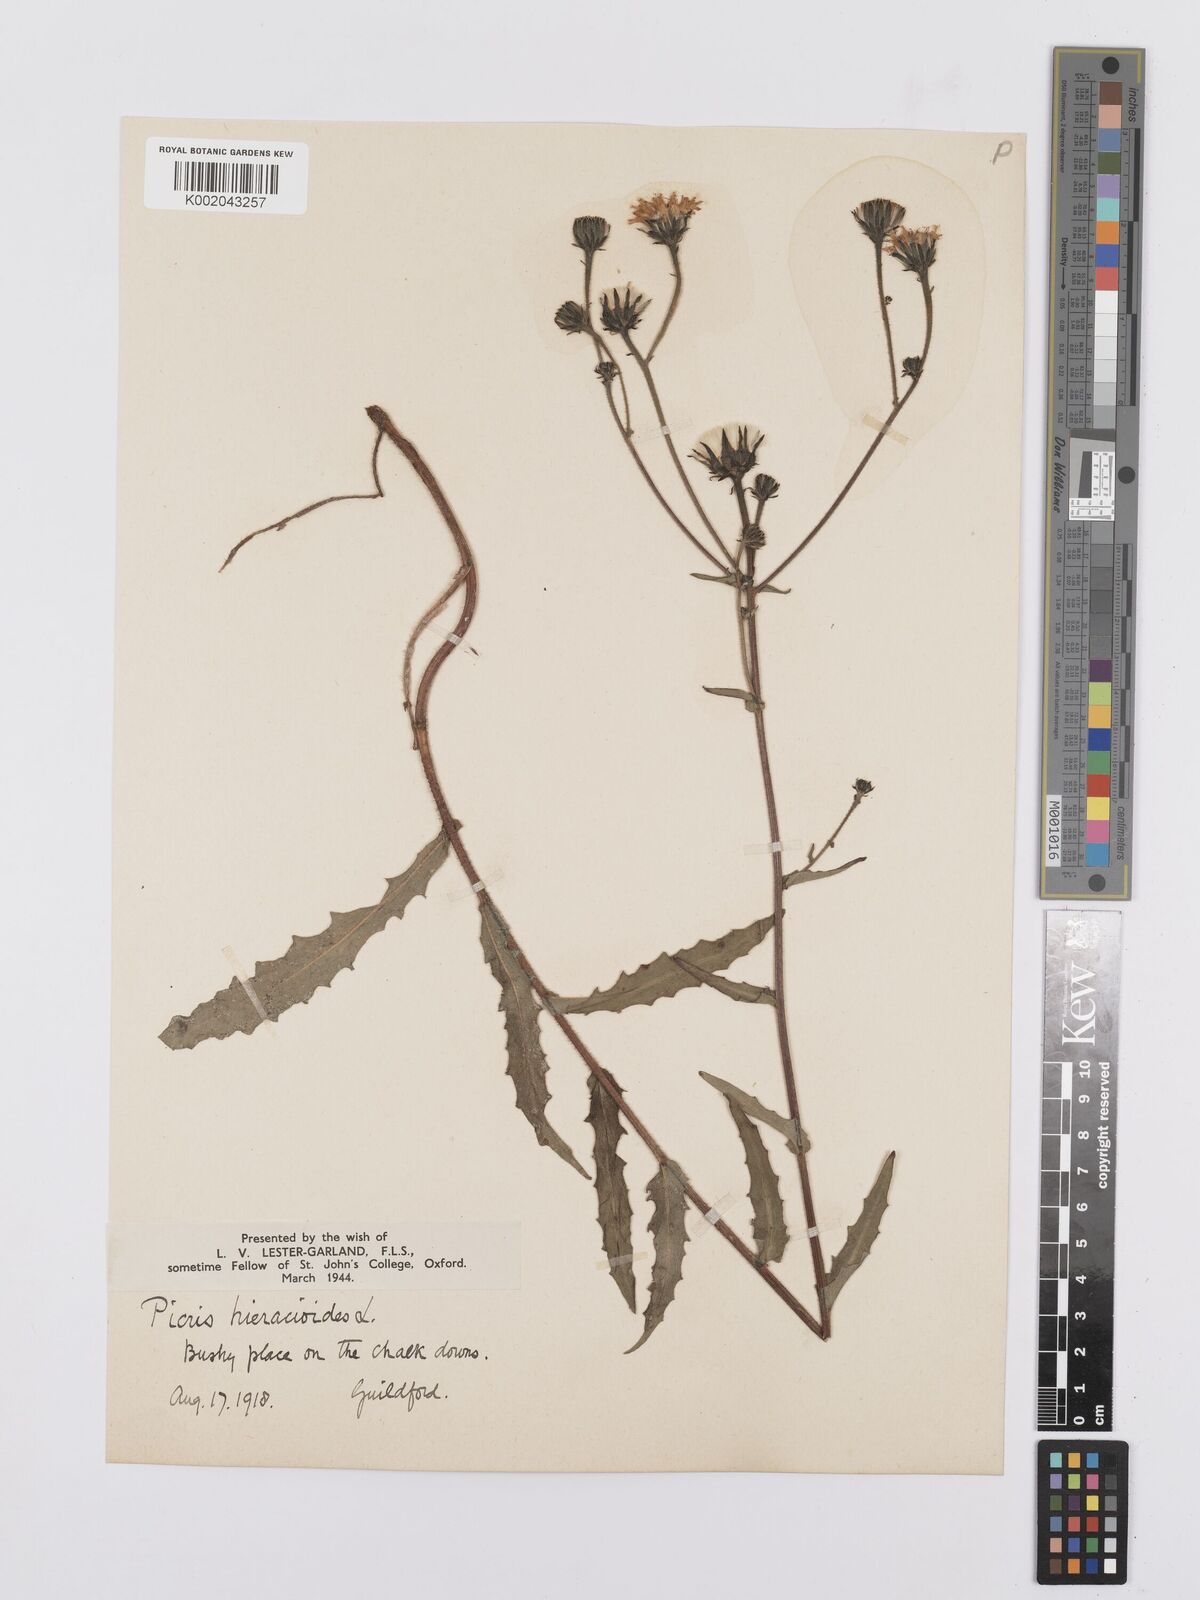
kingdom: Plantae
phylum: Tracheophyta
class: Magnoliopsida
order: Asterales
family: Asteraceae
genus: Picris
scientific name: Picris hieracioides
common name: Hawkweed oxtongue
